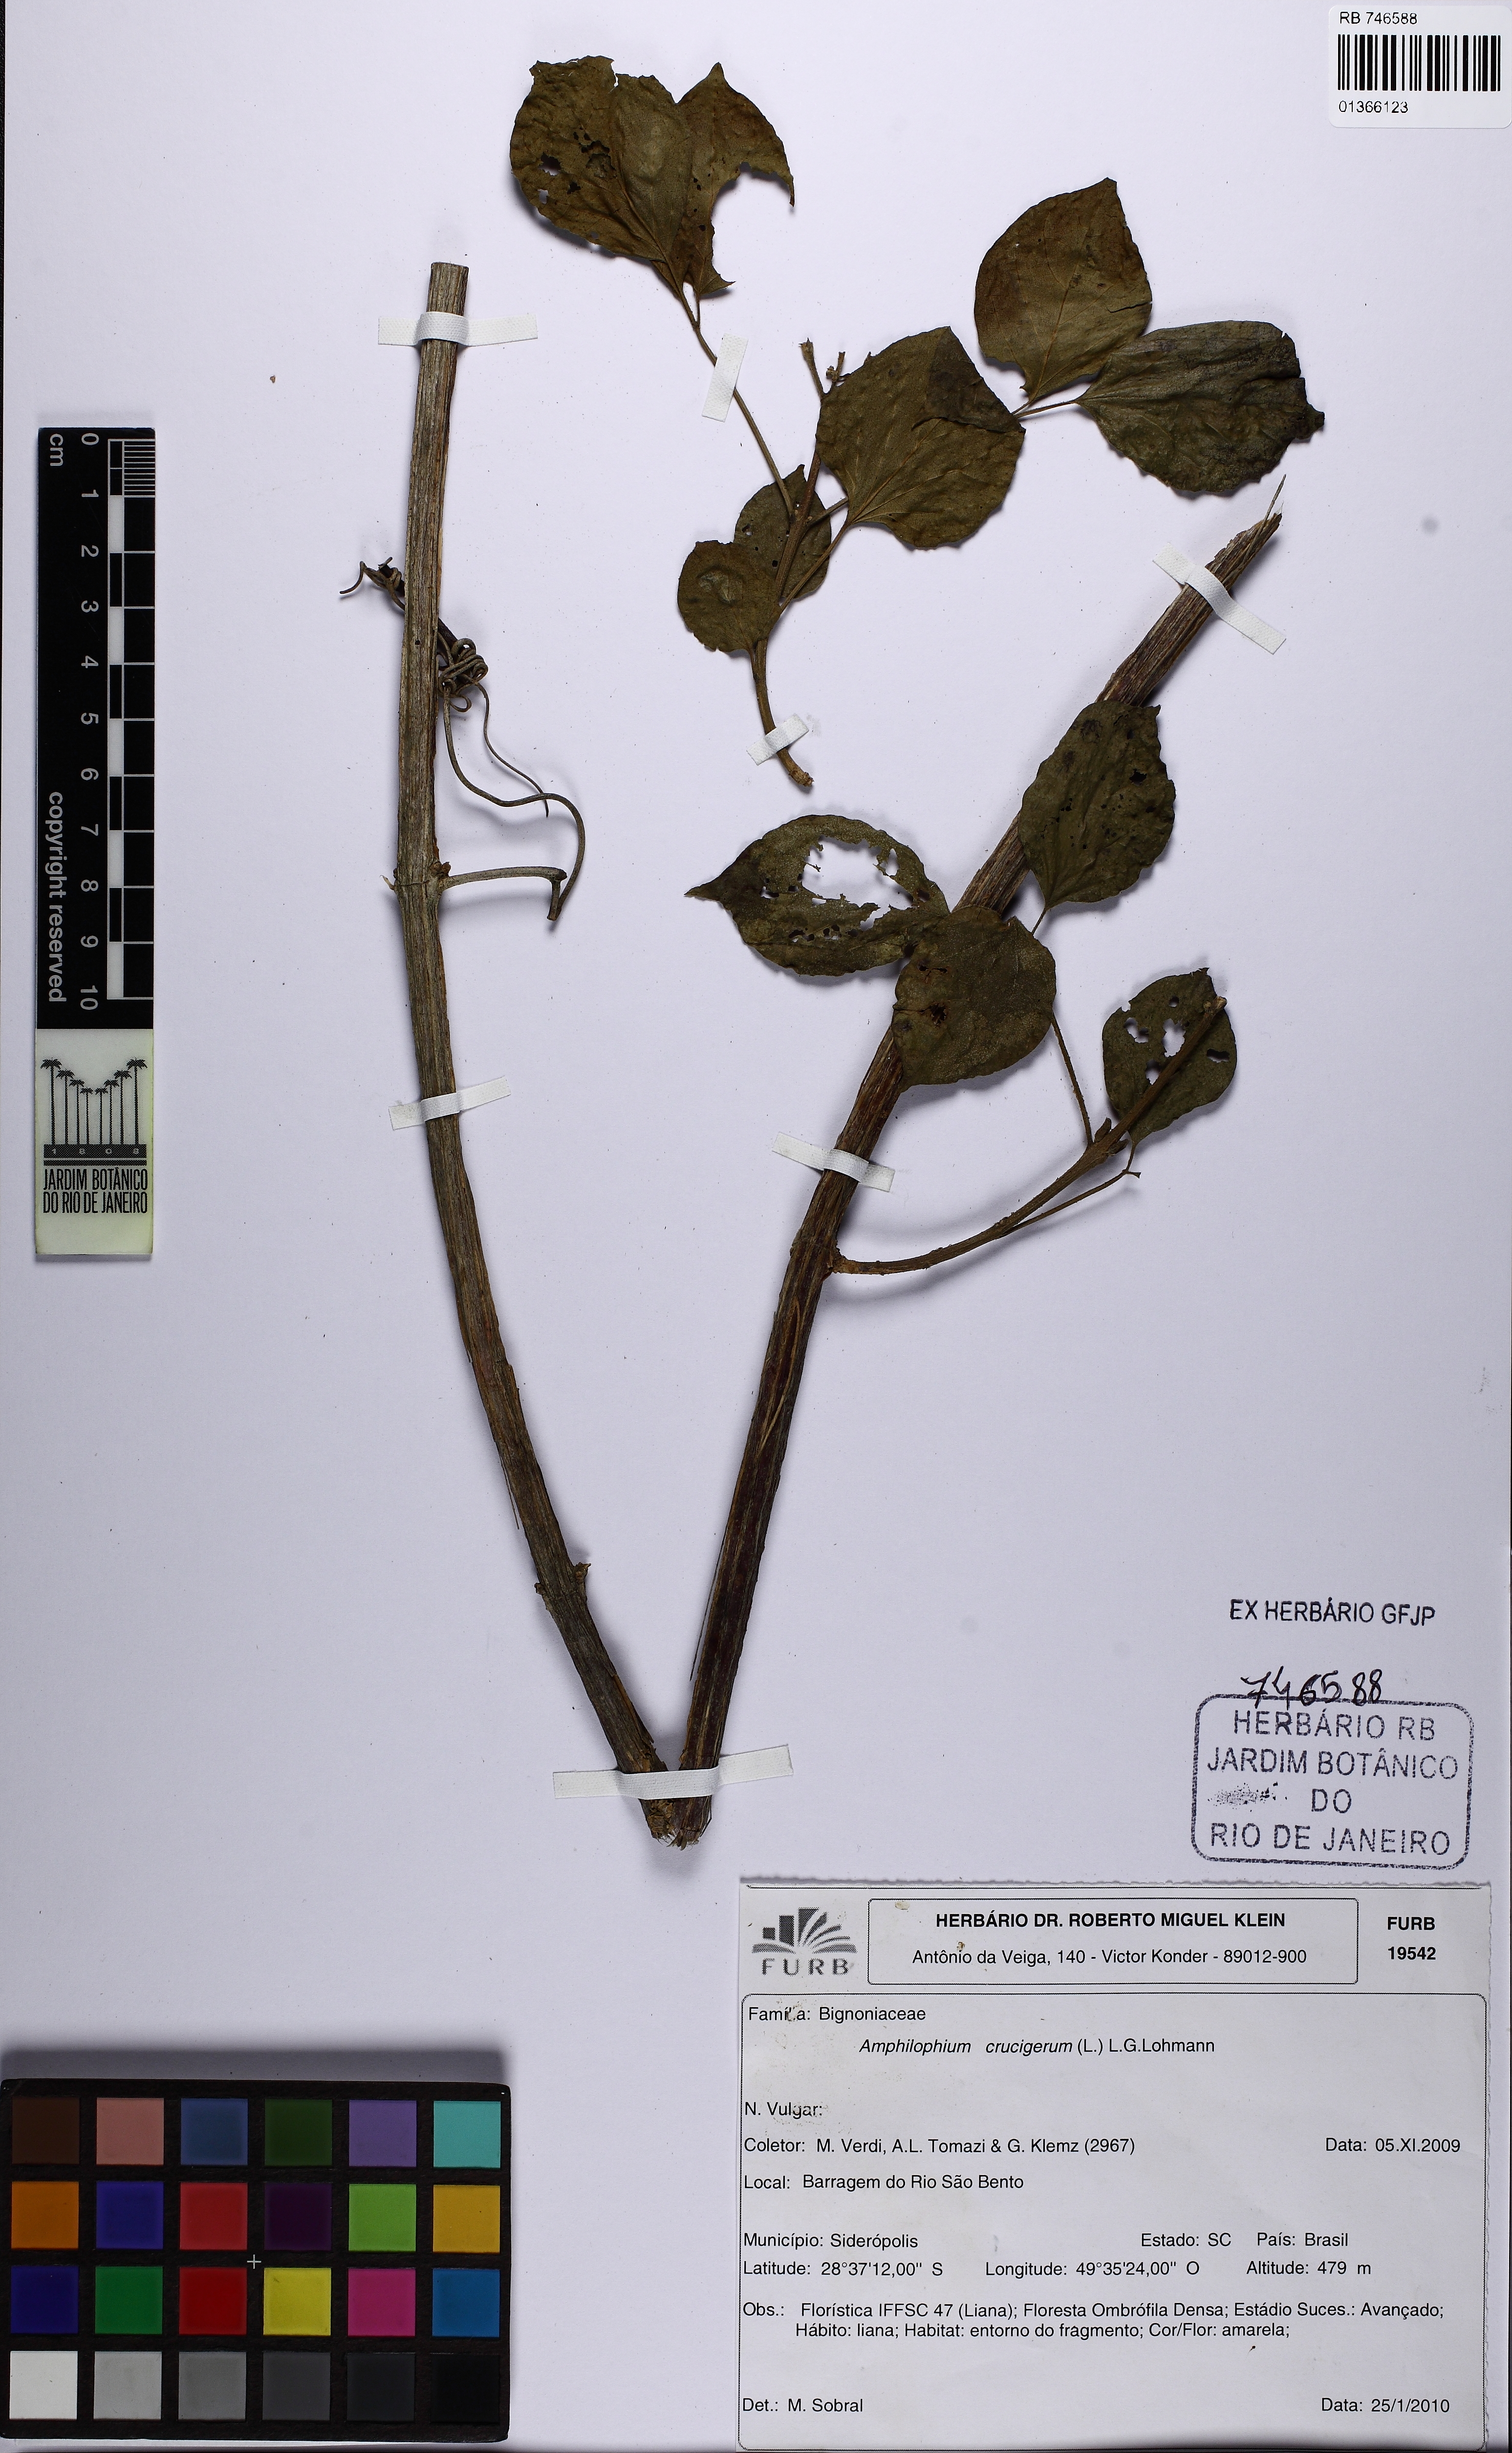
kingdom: Plantae
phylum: Tracheophyta
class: Magnoliopsida
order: Lamiales
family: Bignoniaceae
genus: Amphilophium
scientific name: Amphilophium crucigerum
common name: Monkey comb
